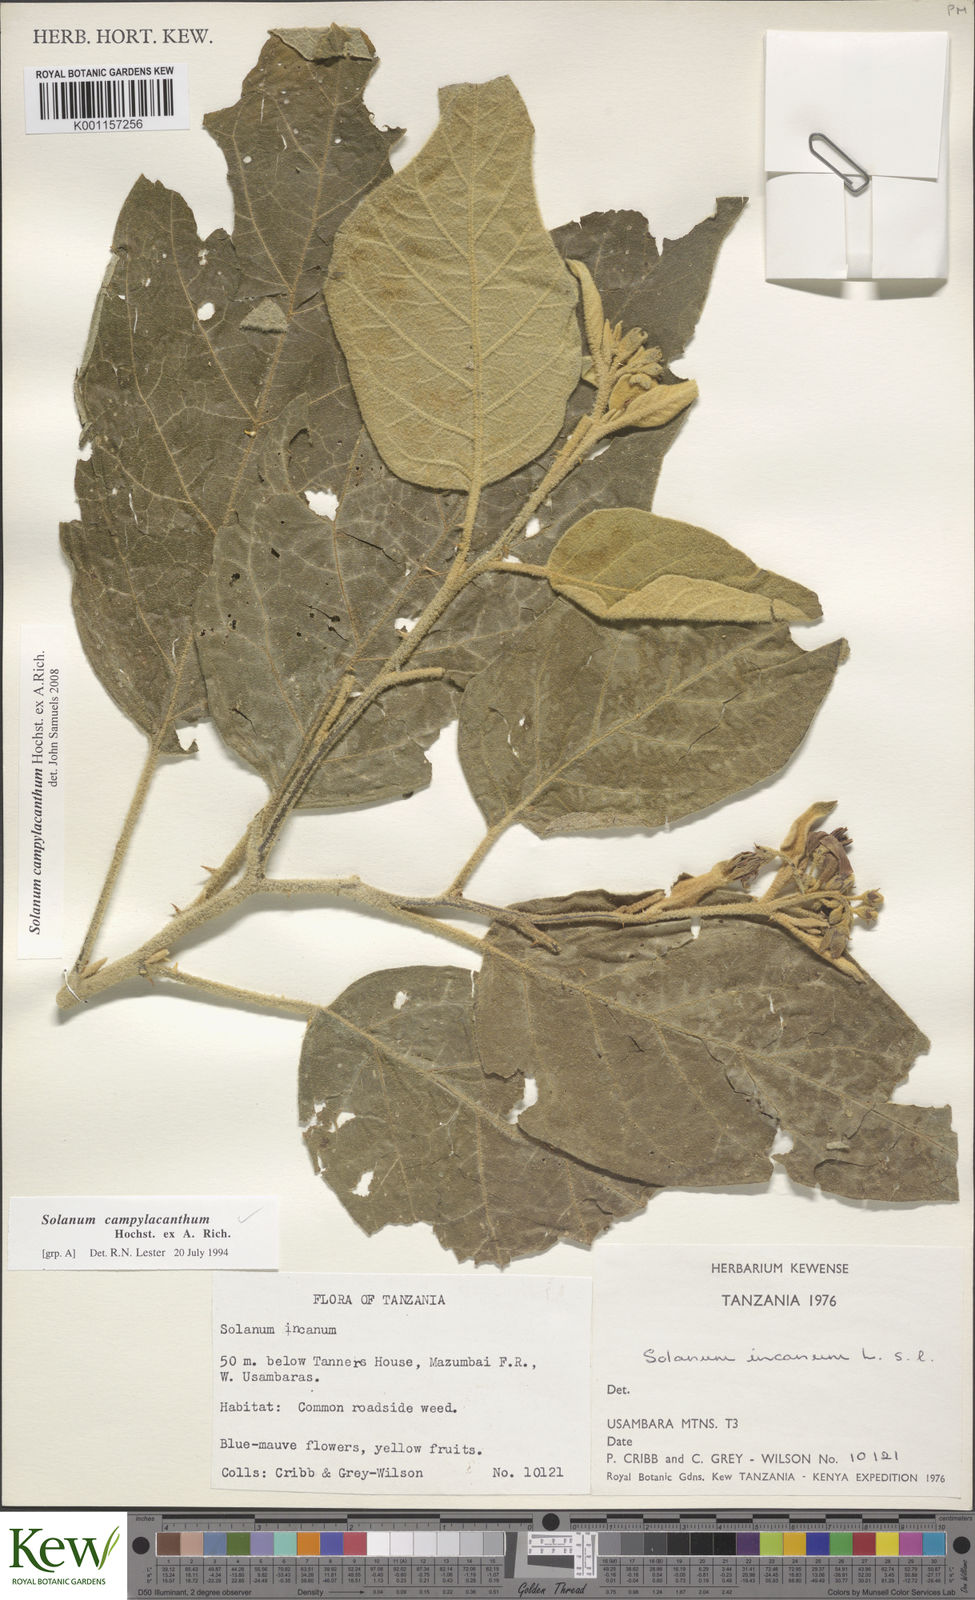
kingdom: Plantae
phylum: Tracheophyta
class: Magnoliopsida
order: Solanales
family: Solanaceae
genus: Solanum
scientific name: Solanum campylacanthum
